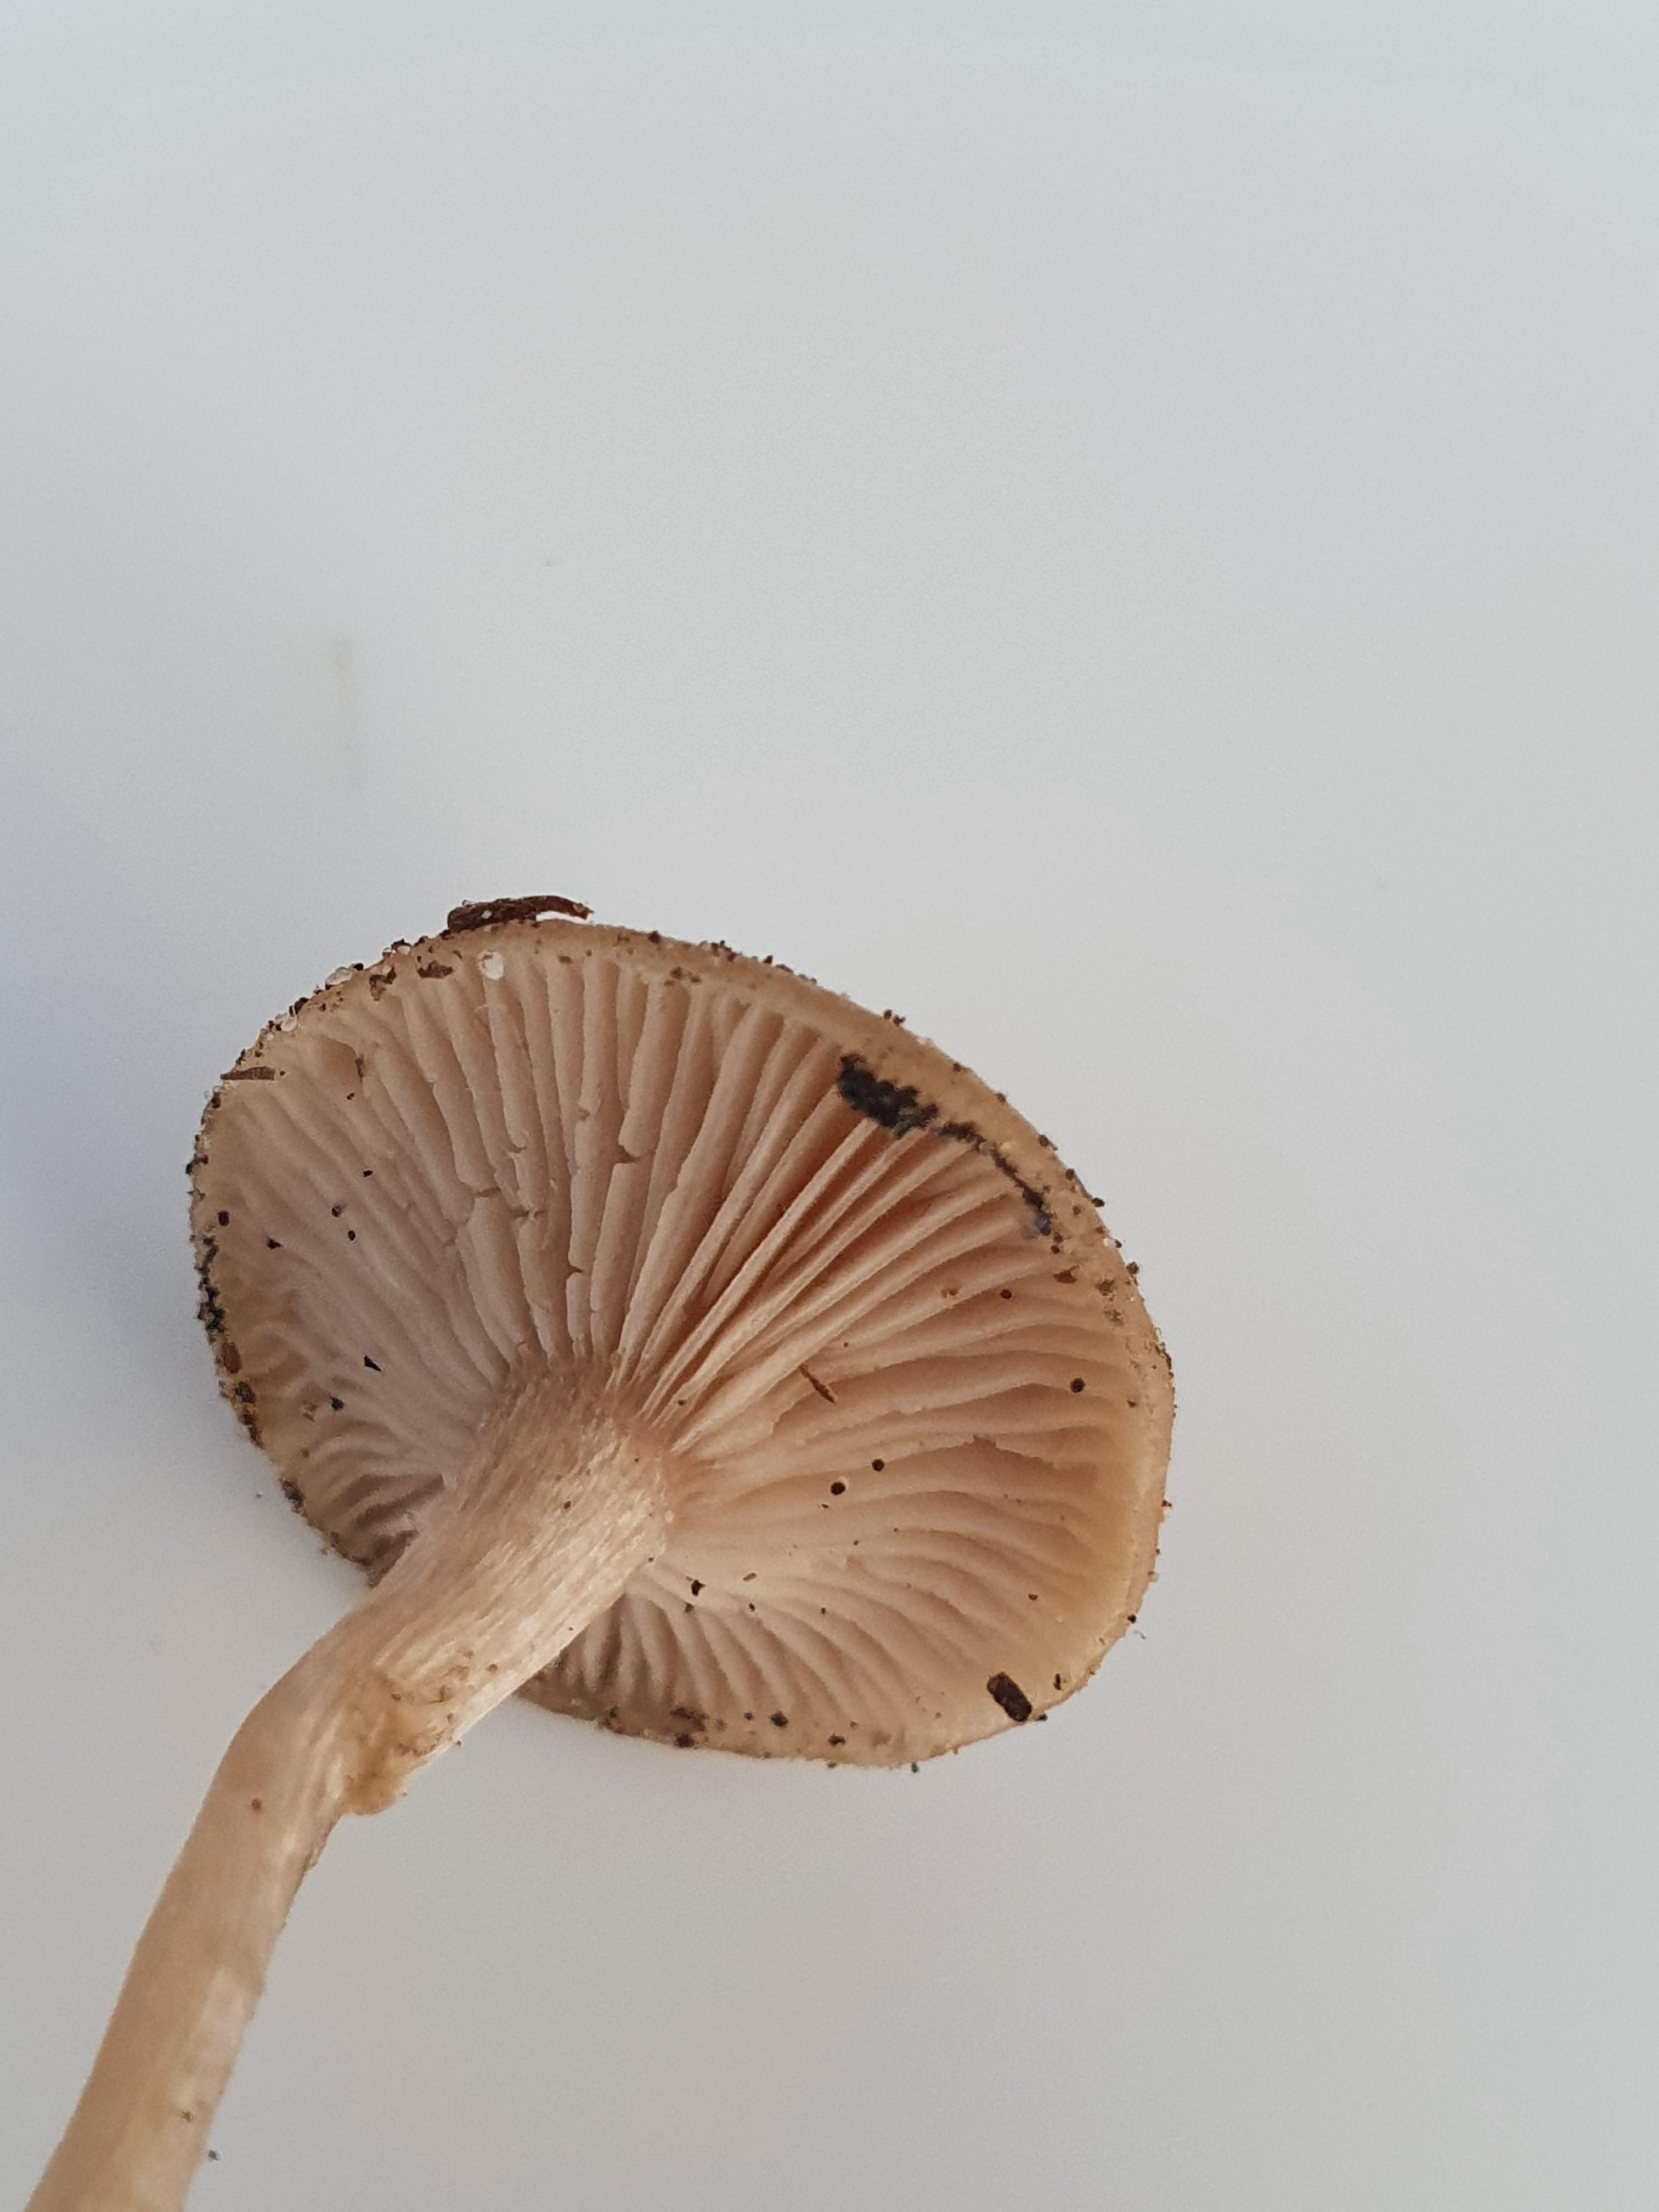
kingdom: Fungi
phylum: Basidiomycota
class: Agaricomycetes
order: Agaricales
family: Tricholomataceae
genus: Clitocybe
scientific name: Clitocybe fragrans
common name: vellugtende tragthat
